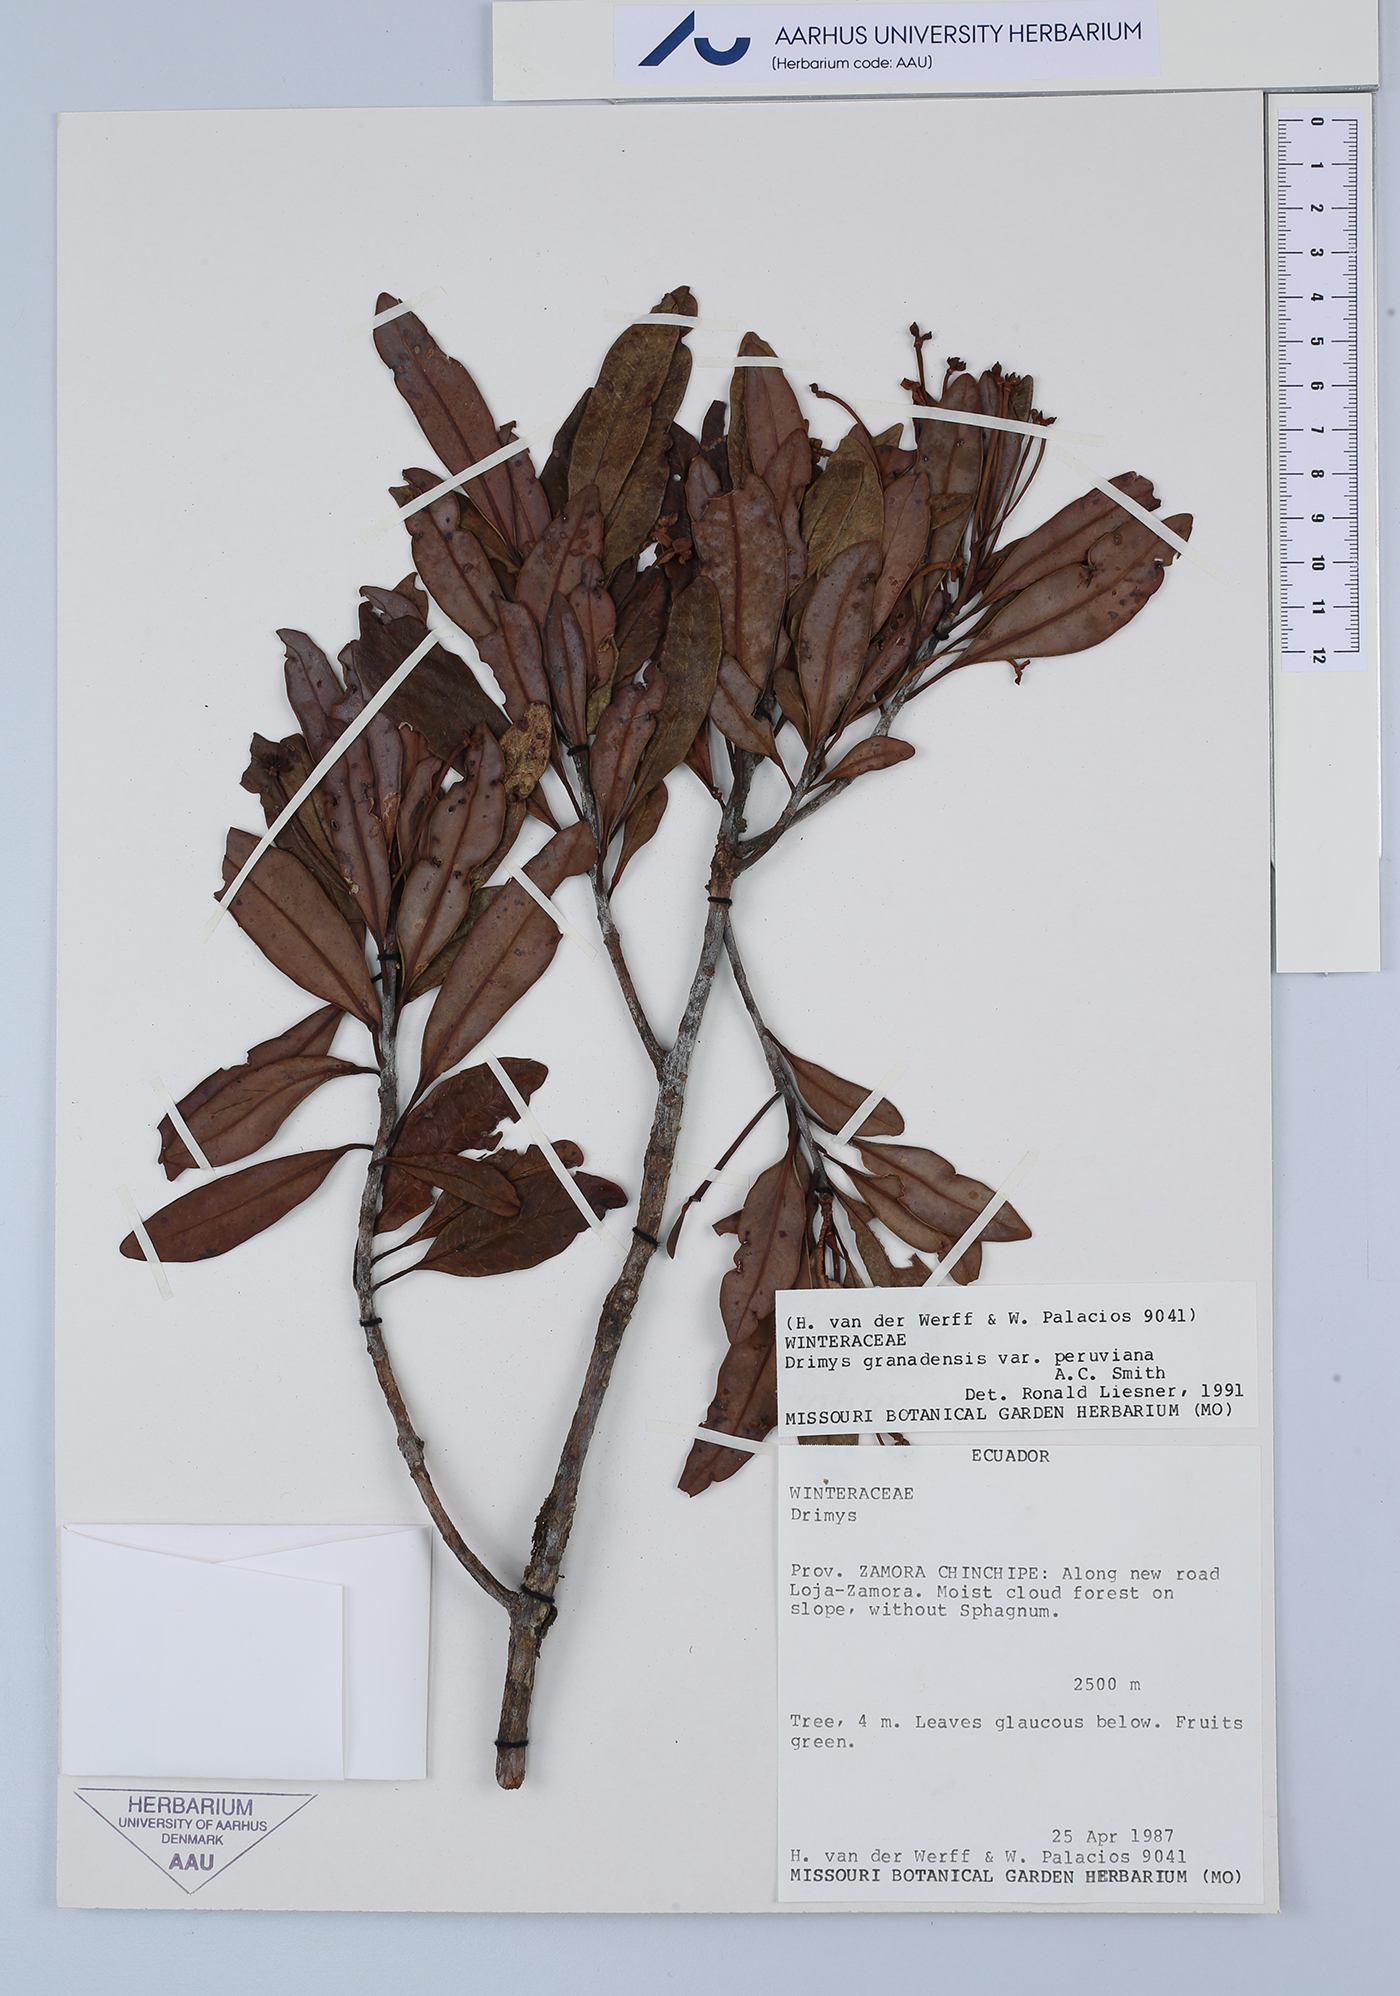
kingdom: Plantae
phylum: Tracheophyta
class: Magnoliopsida
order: Canellales
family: Winteraceae
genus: Drimys
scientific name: Drimys granadensis
